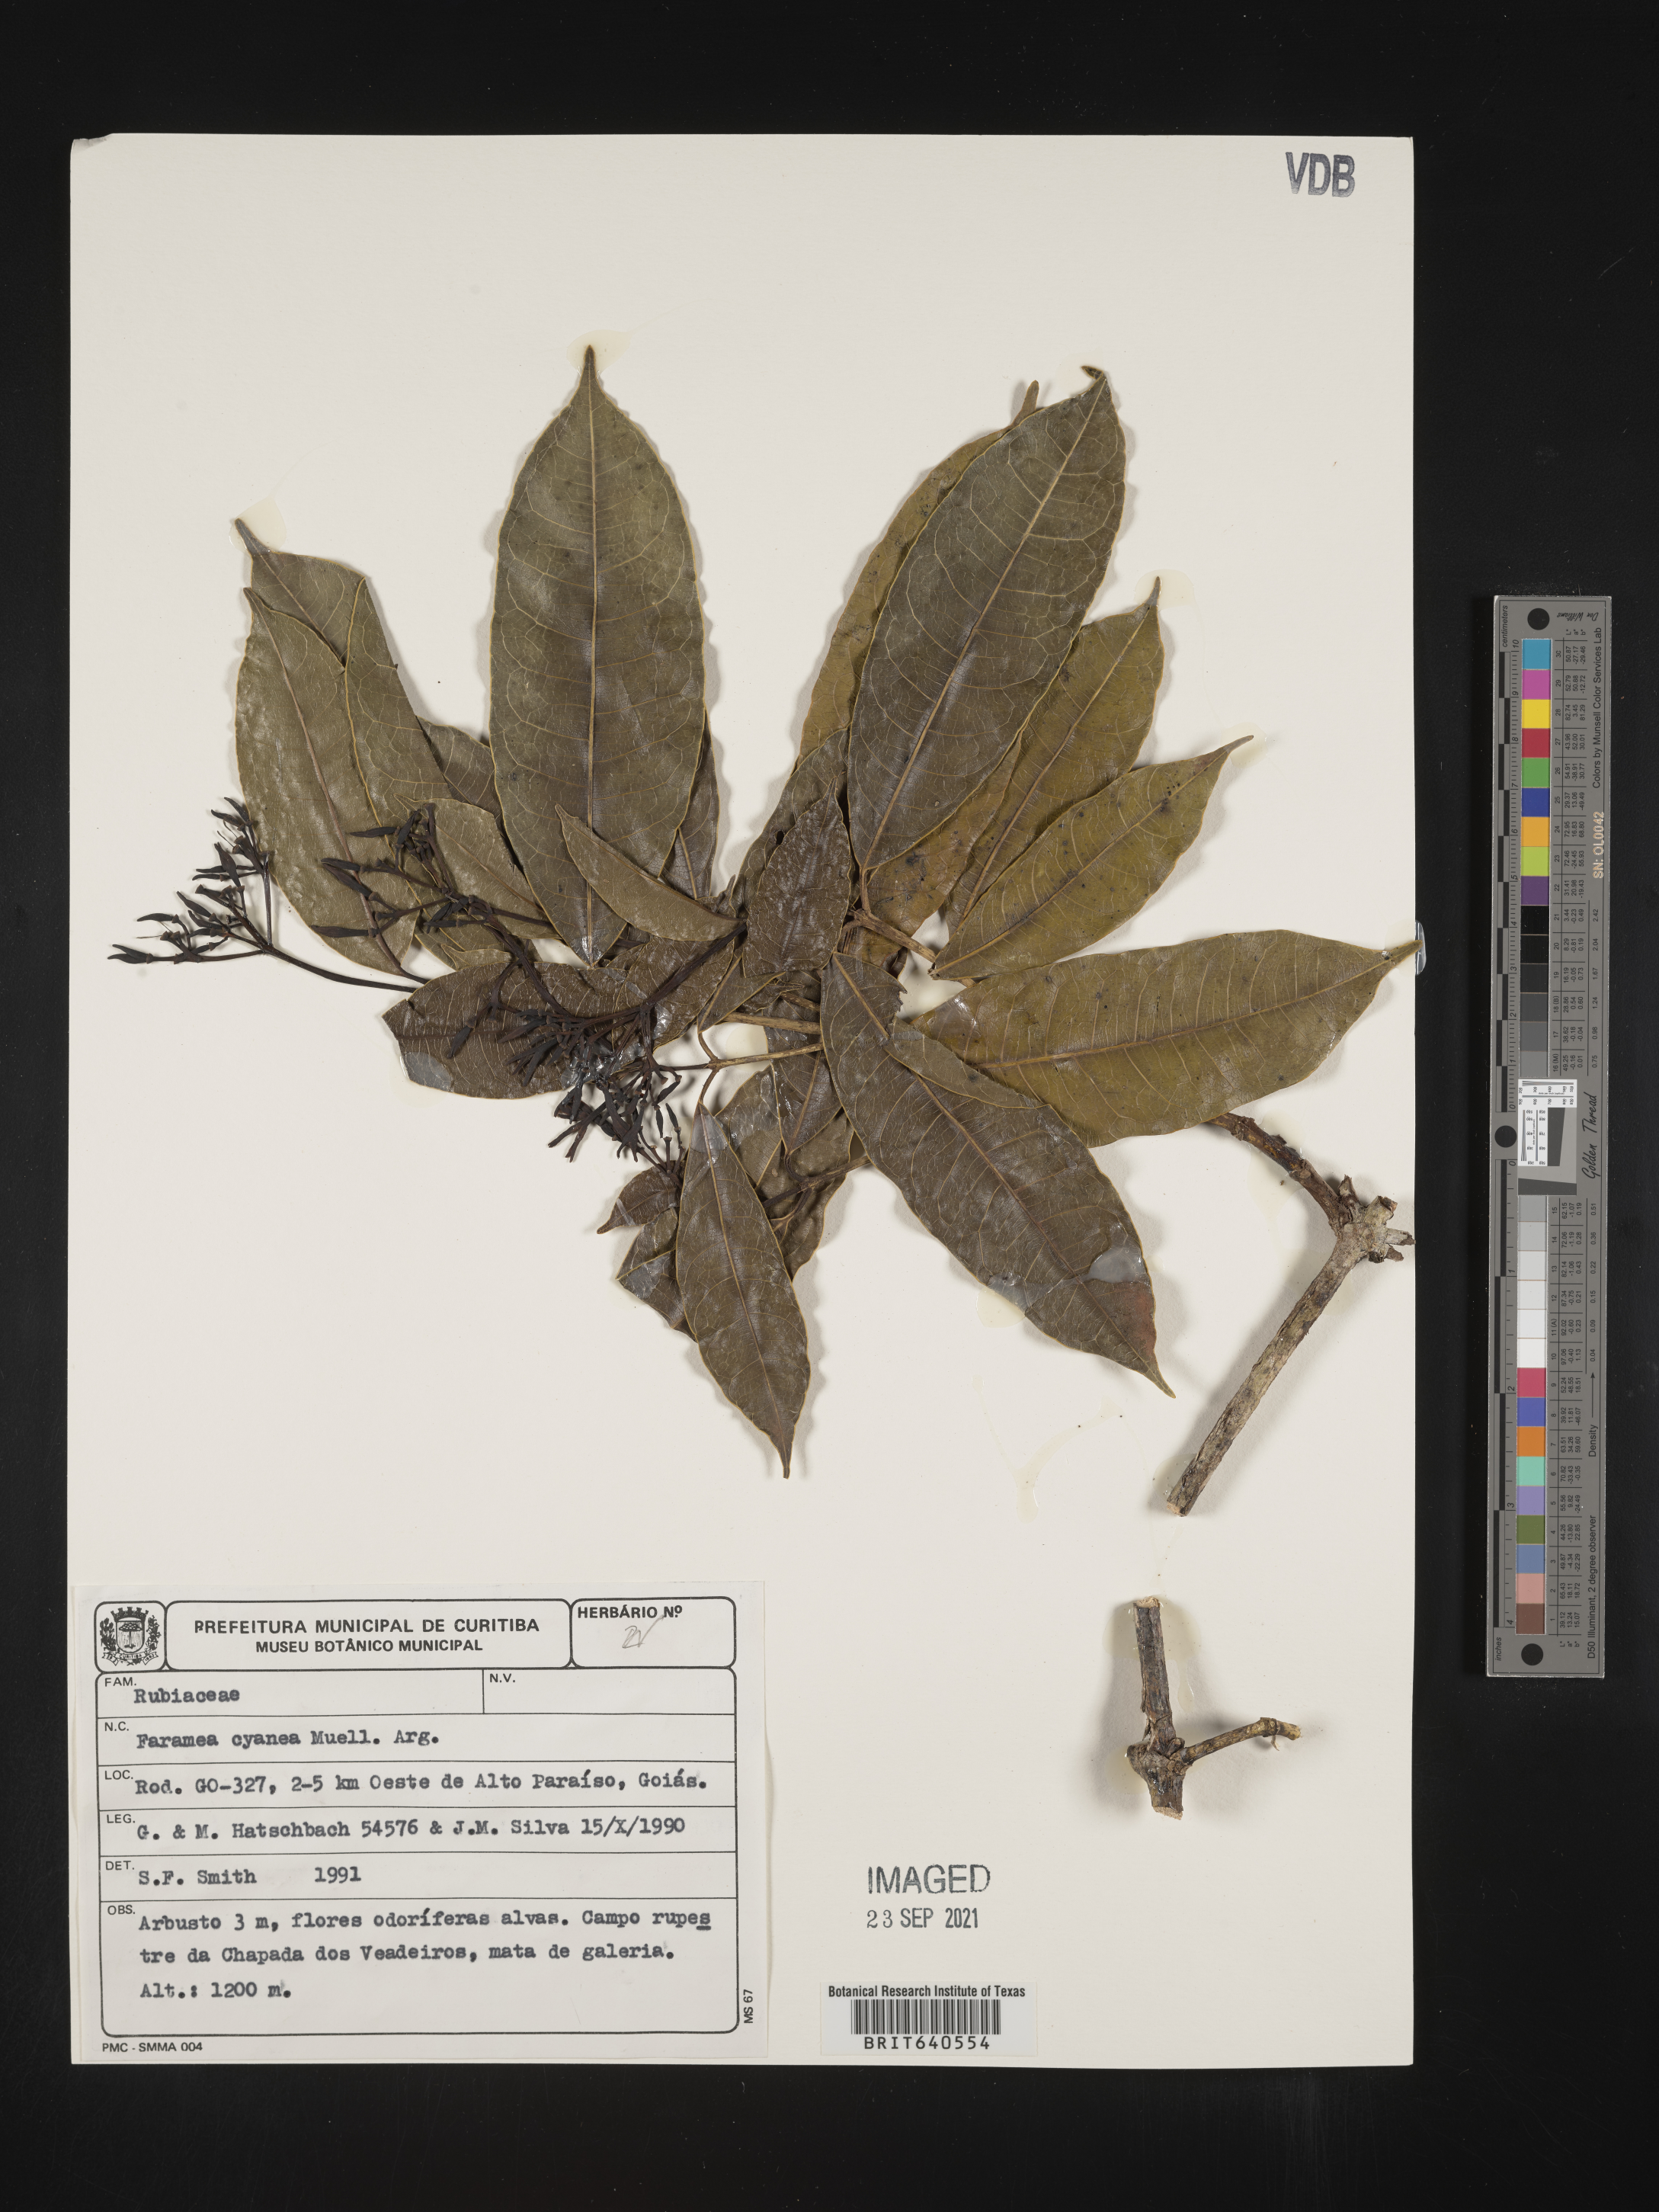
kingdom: Plantae
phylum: Tracheophyta
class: Magnoliopsida
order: Gentianales
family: Rubiaceae
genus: Faramea
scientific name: Faramea
